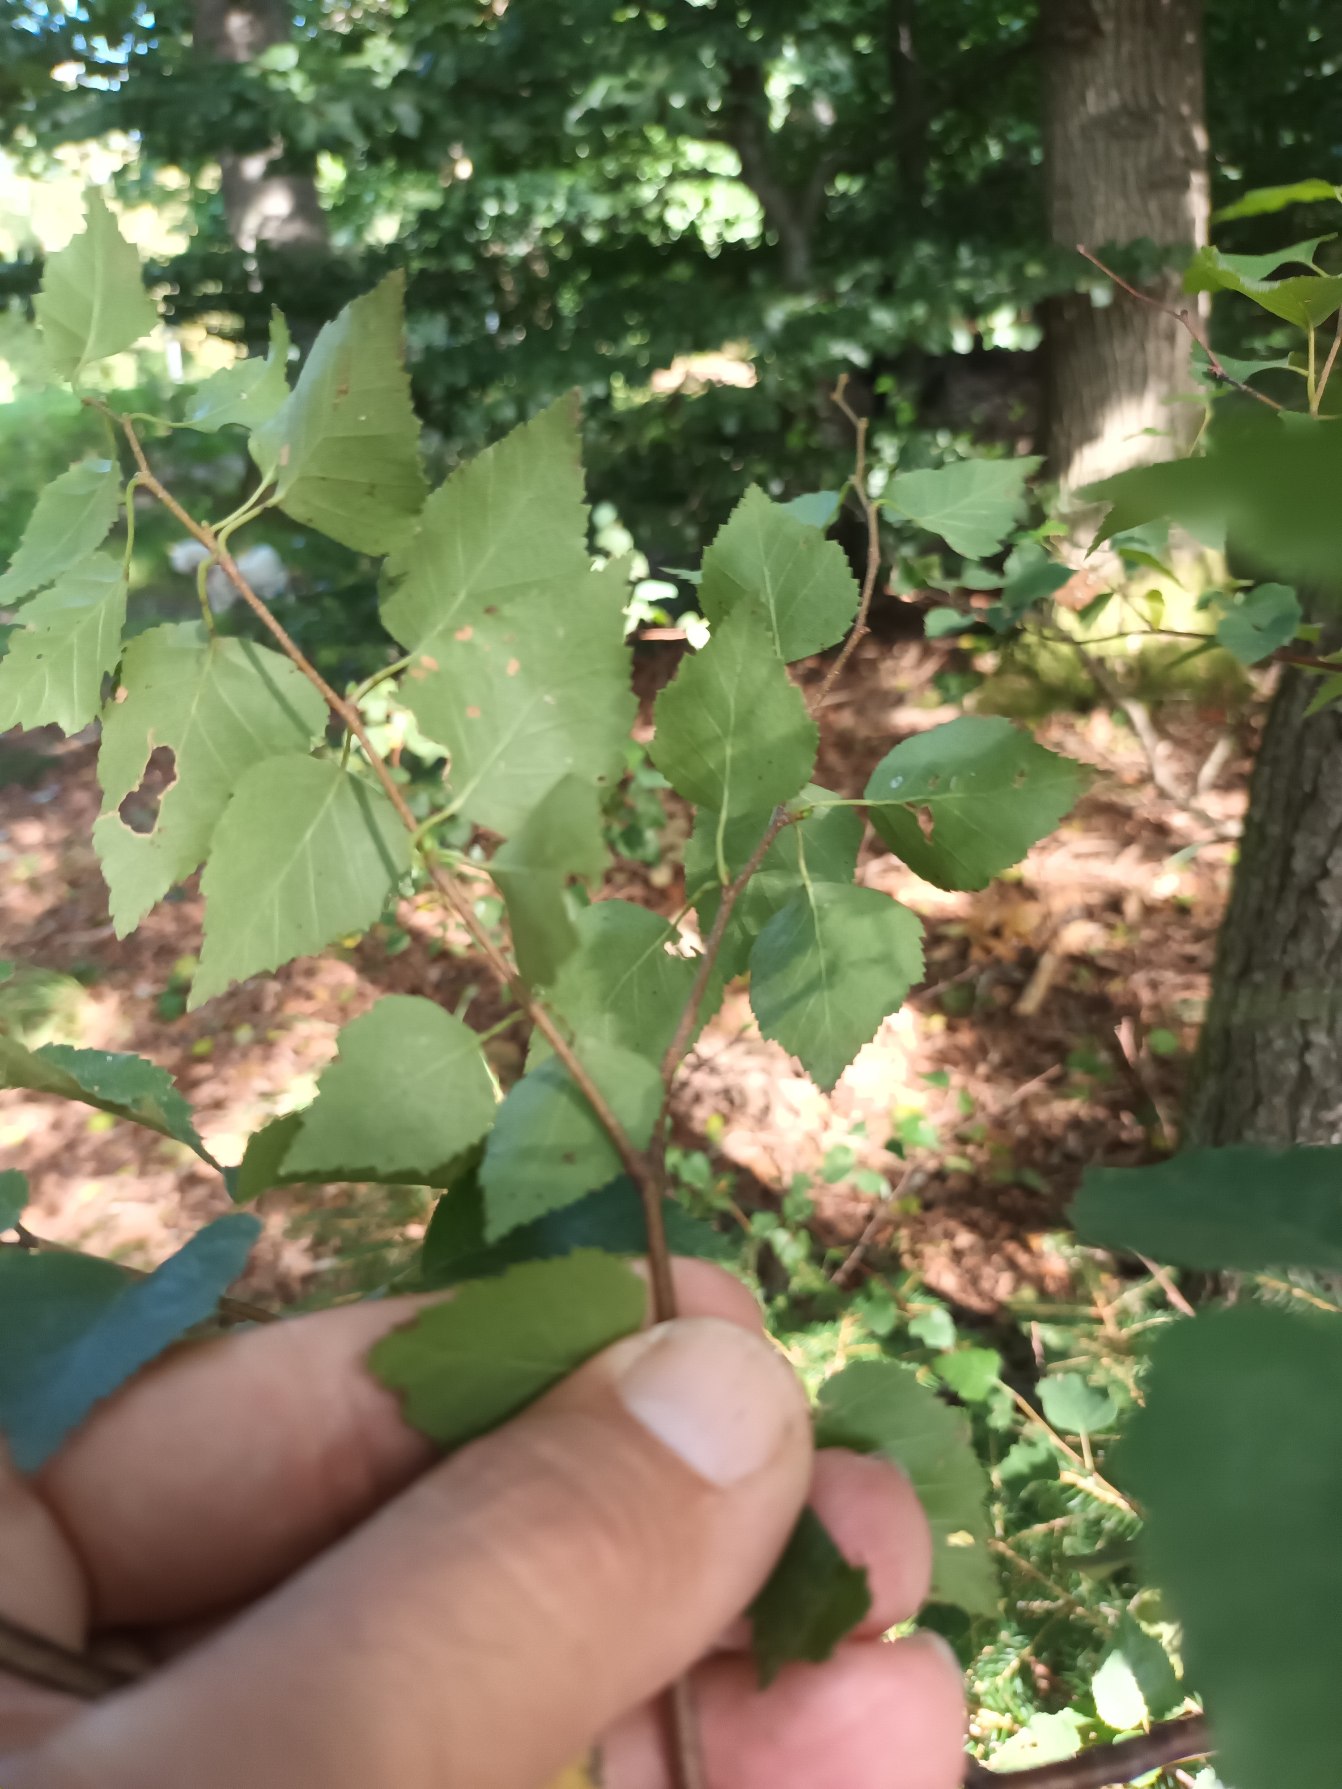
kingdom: Plantae
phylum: Tracheophyta
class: Magnoliopsida
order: Fagales
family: Betulaceae
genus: Betula
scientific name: Betula pendula
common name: Vorte-birk
